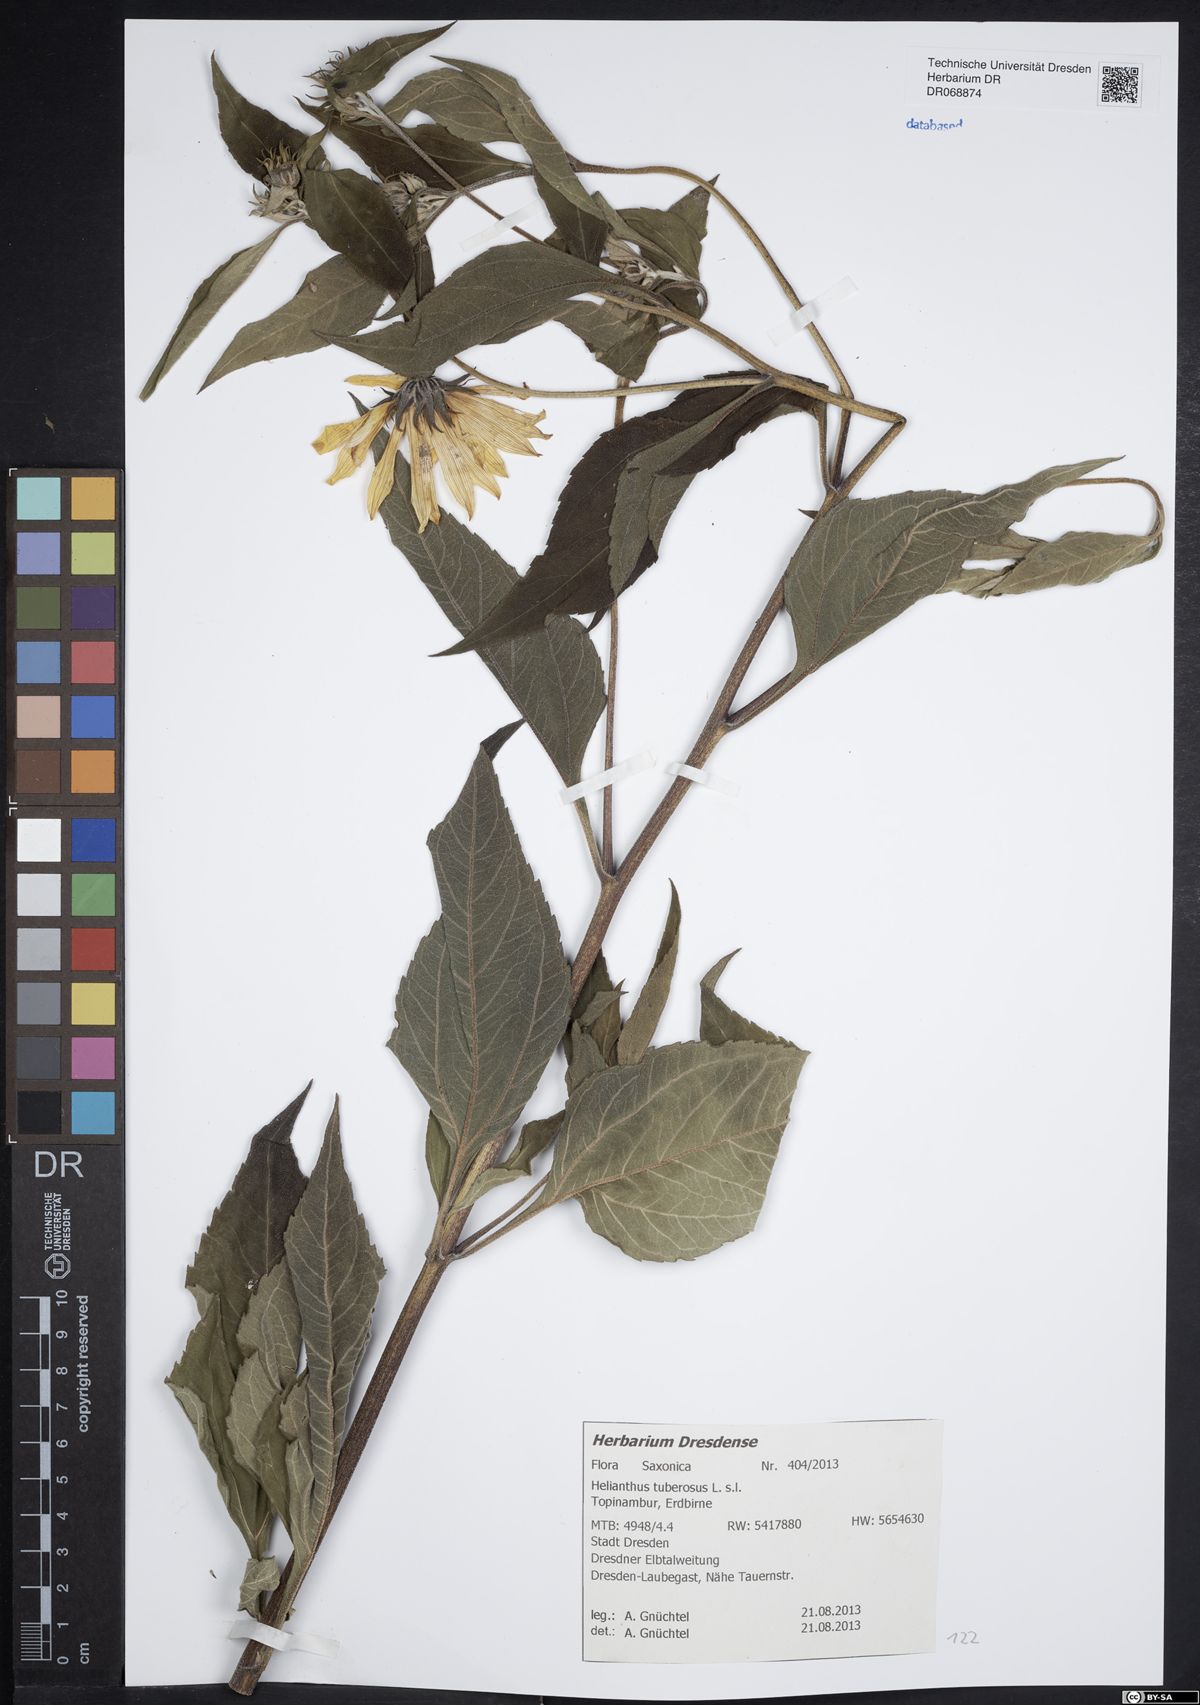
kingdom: Plantae
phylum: Tracheophyta
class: Magnoliopsida
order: Asterales
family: Asteraceae
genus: Helianthus
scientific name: Helianthus tuberosus
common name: Jerusalem artichoke
